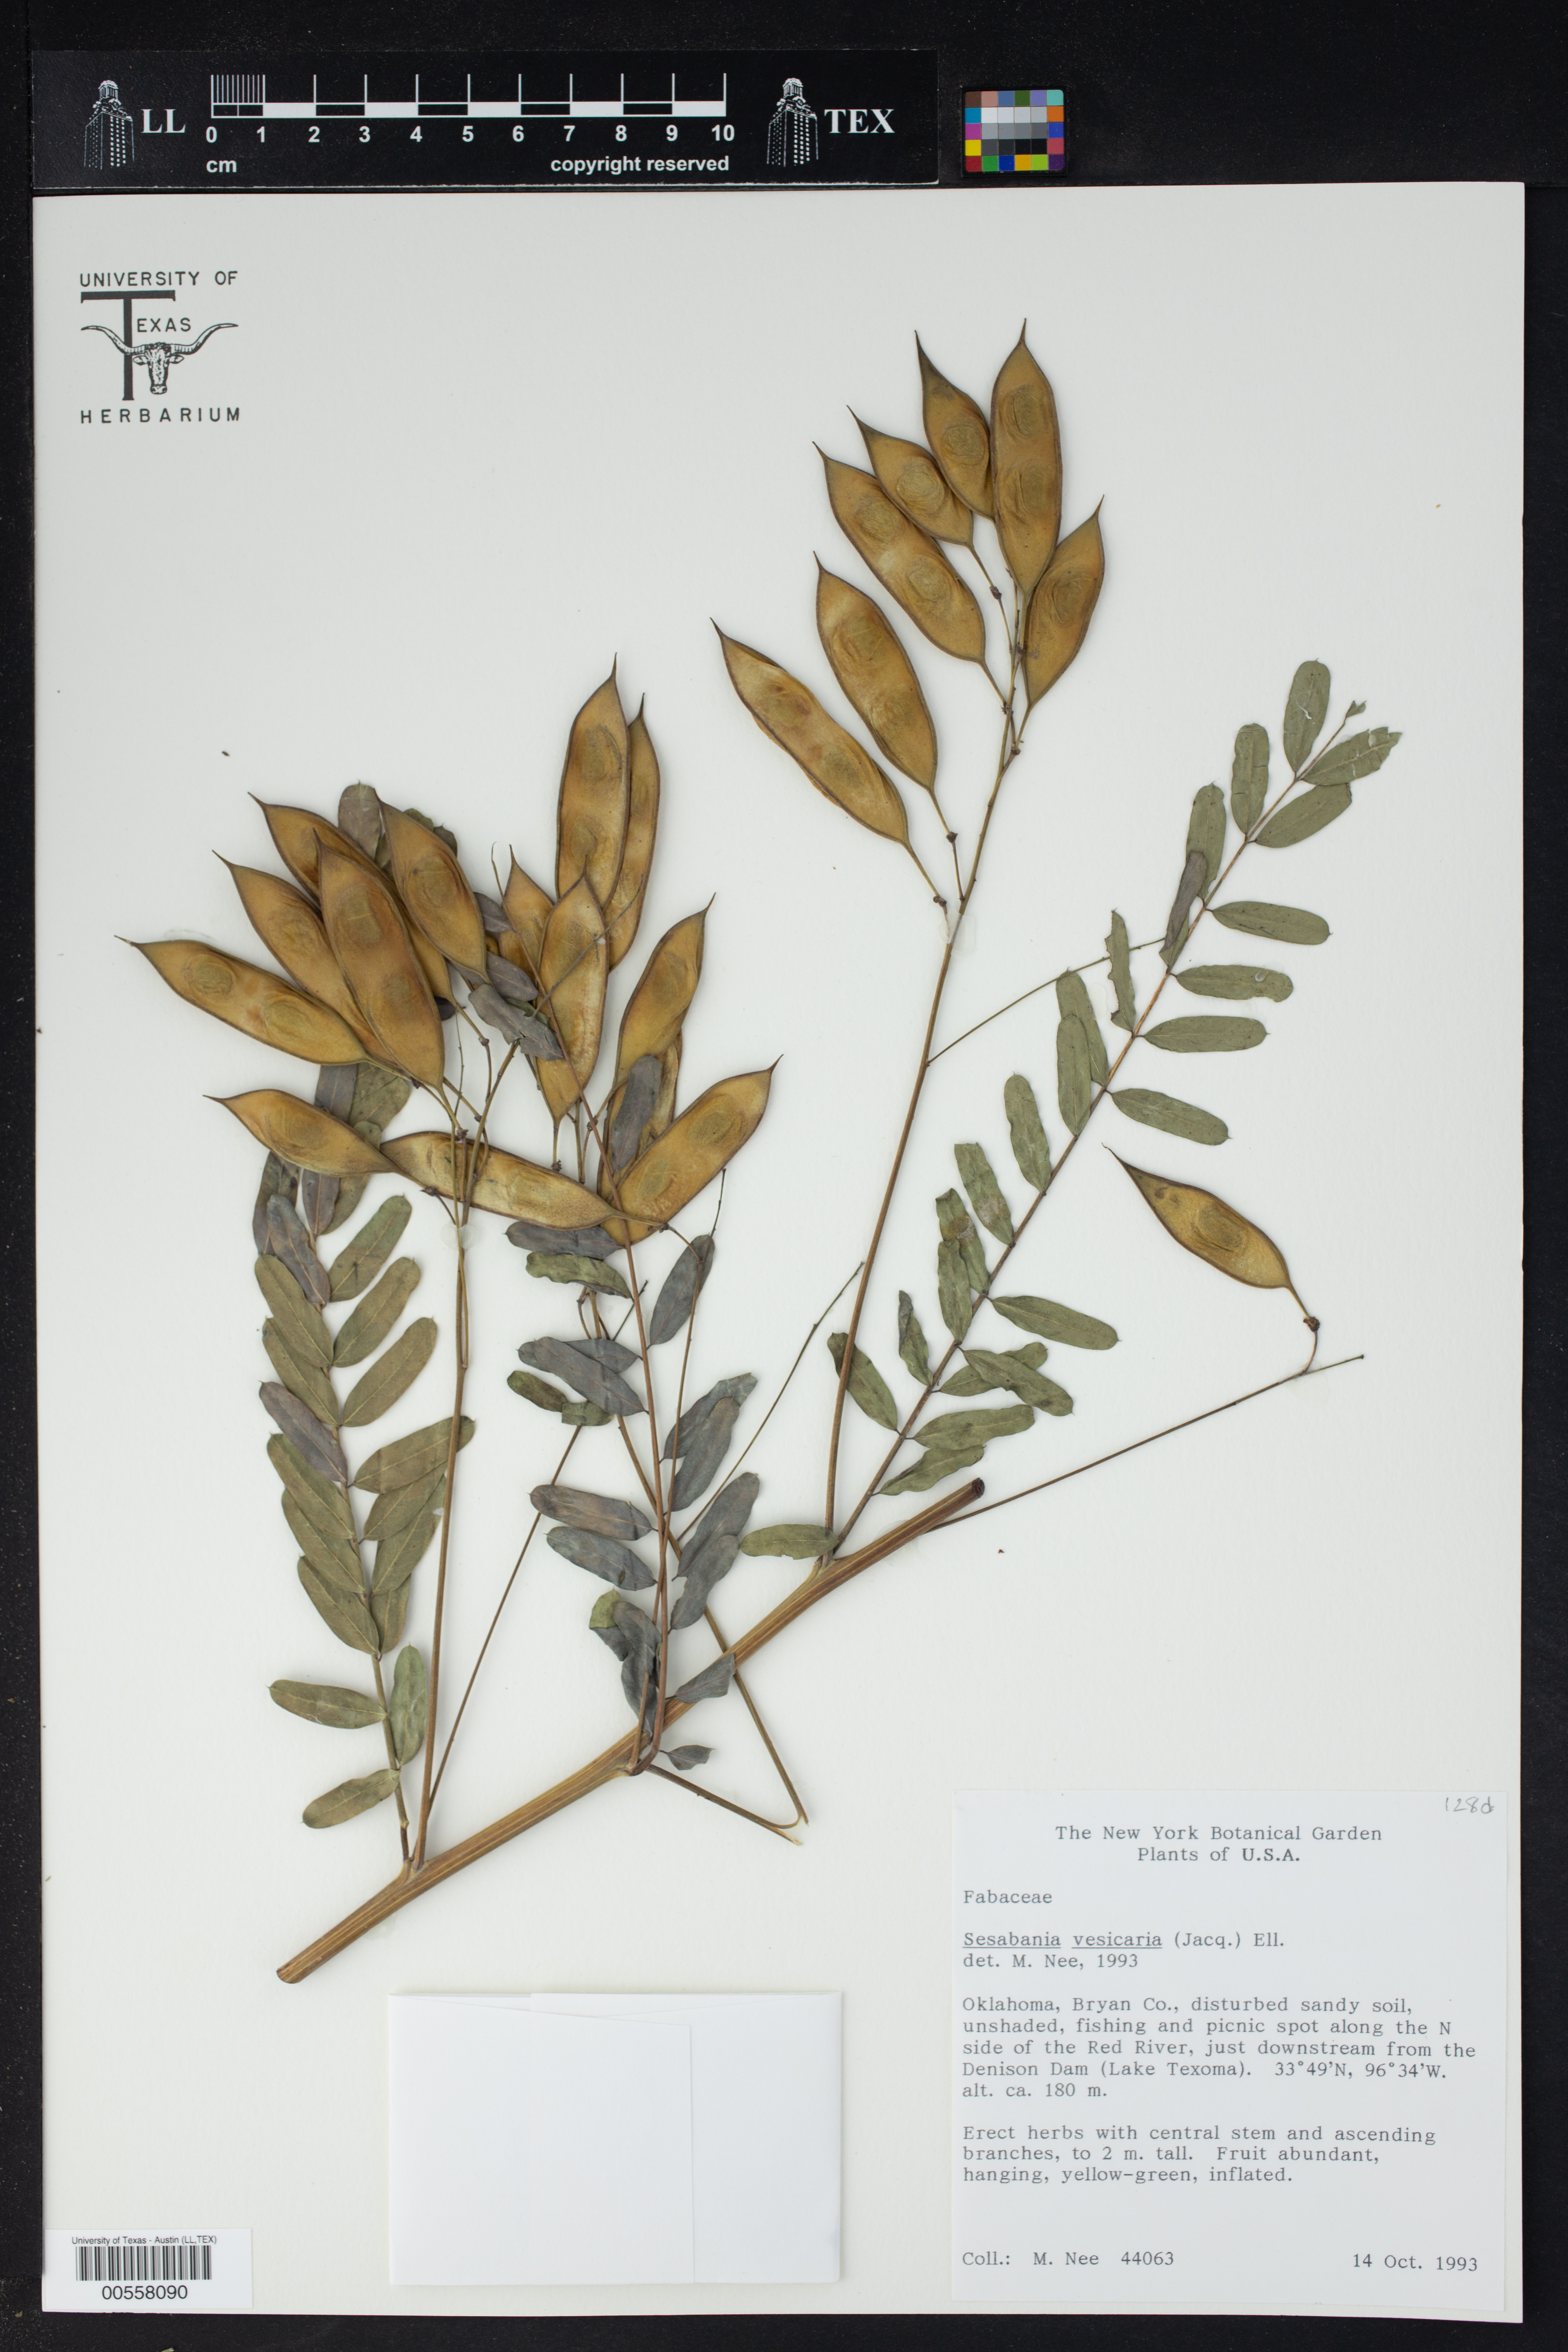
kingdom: Plantae
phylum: Tracheophyta
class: Magnoliopsida
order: Fabales
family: Fabaceae
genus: Sesbania
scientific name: Sesbania vesicaria
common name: Bagpod
